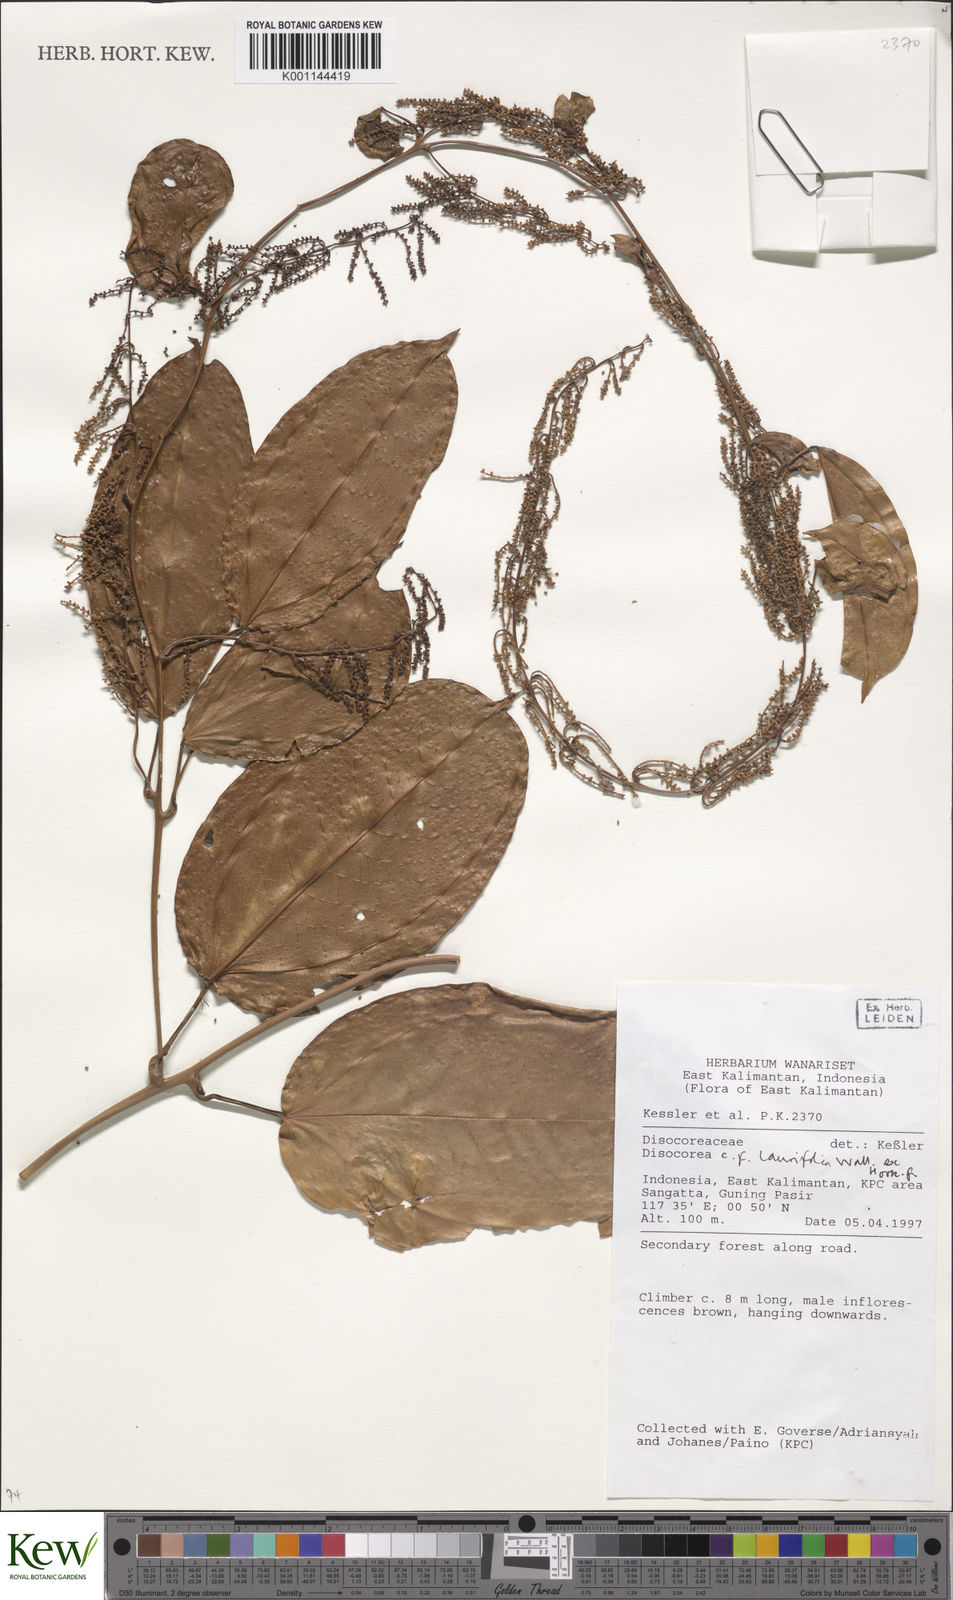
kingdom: Plantae
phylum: Tracheophyta
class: Liliopsida
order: Dioscoreales
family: Dioscoreaceae
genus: Dioscorea
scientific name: Dioscorea laurifolia
